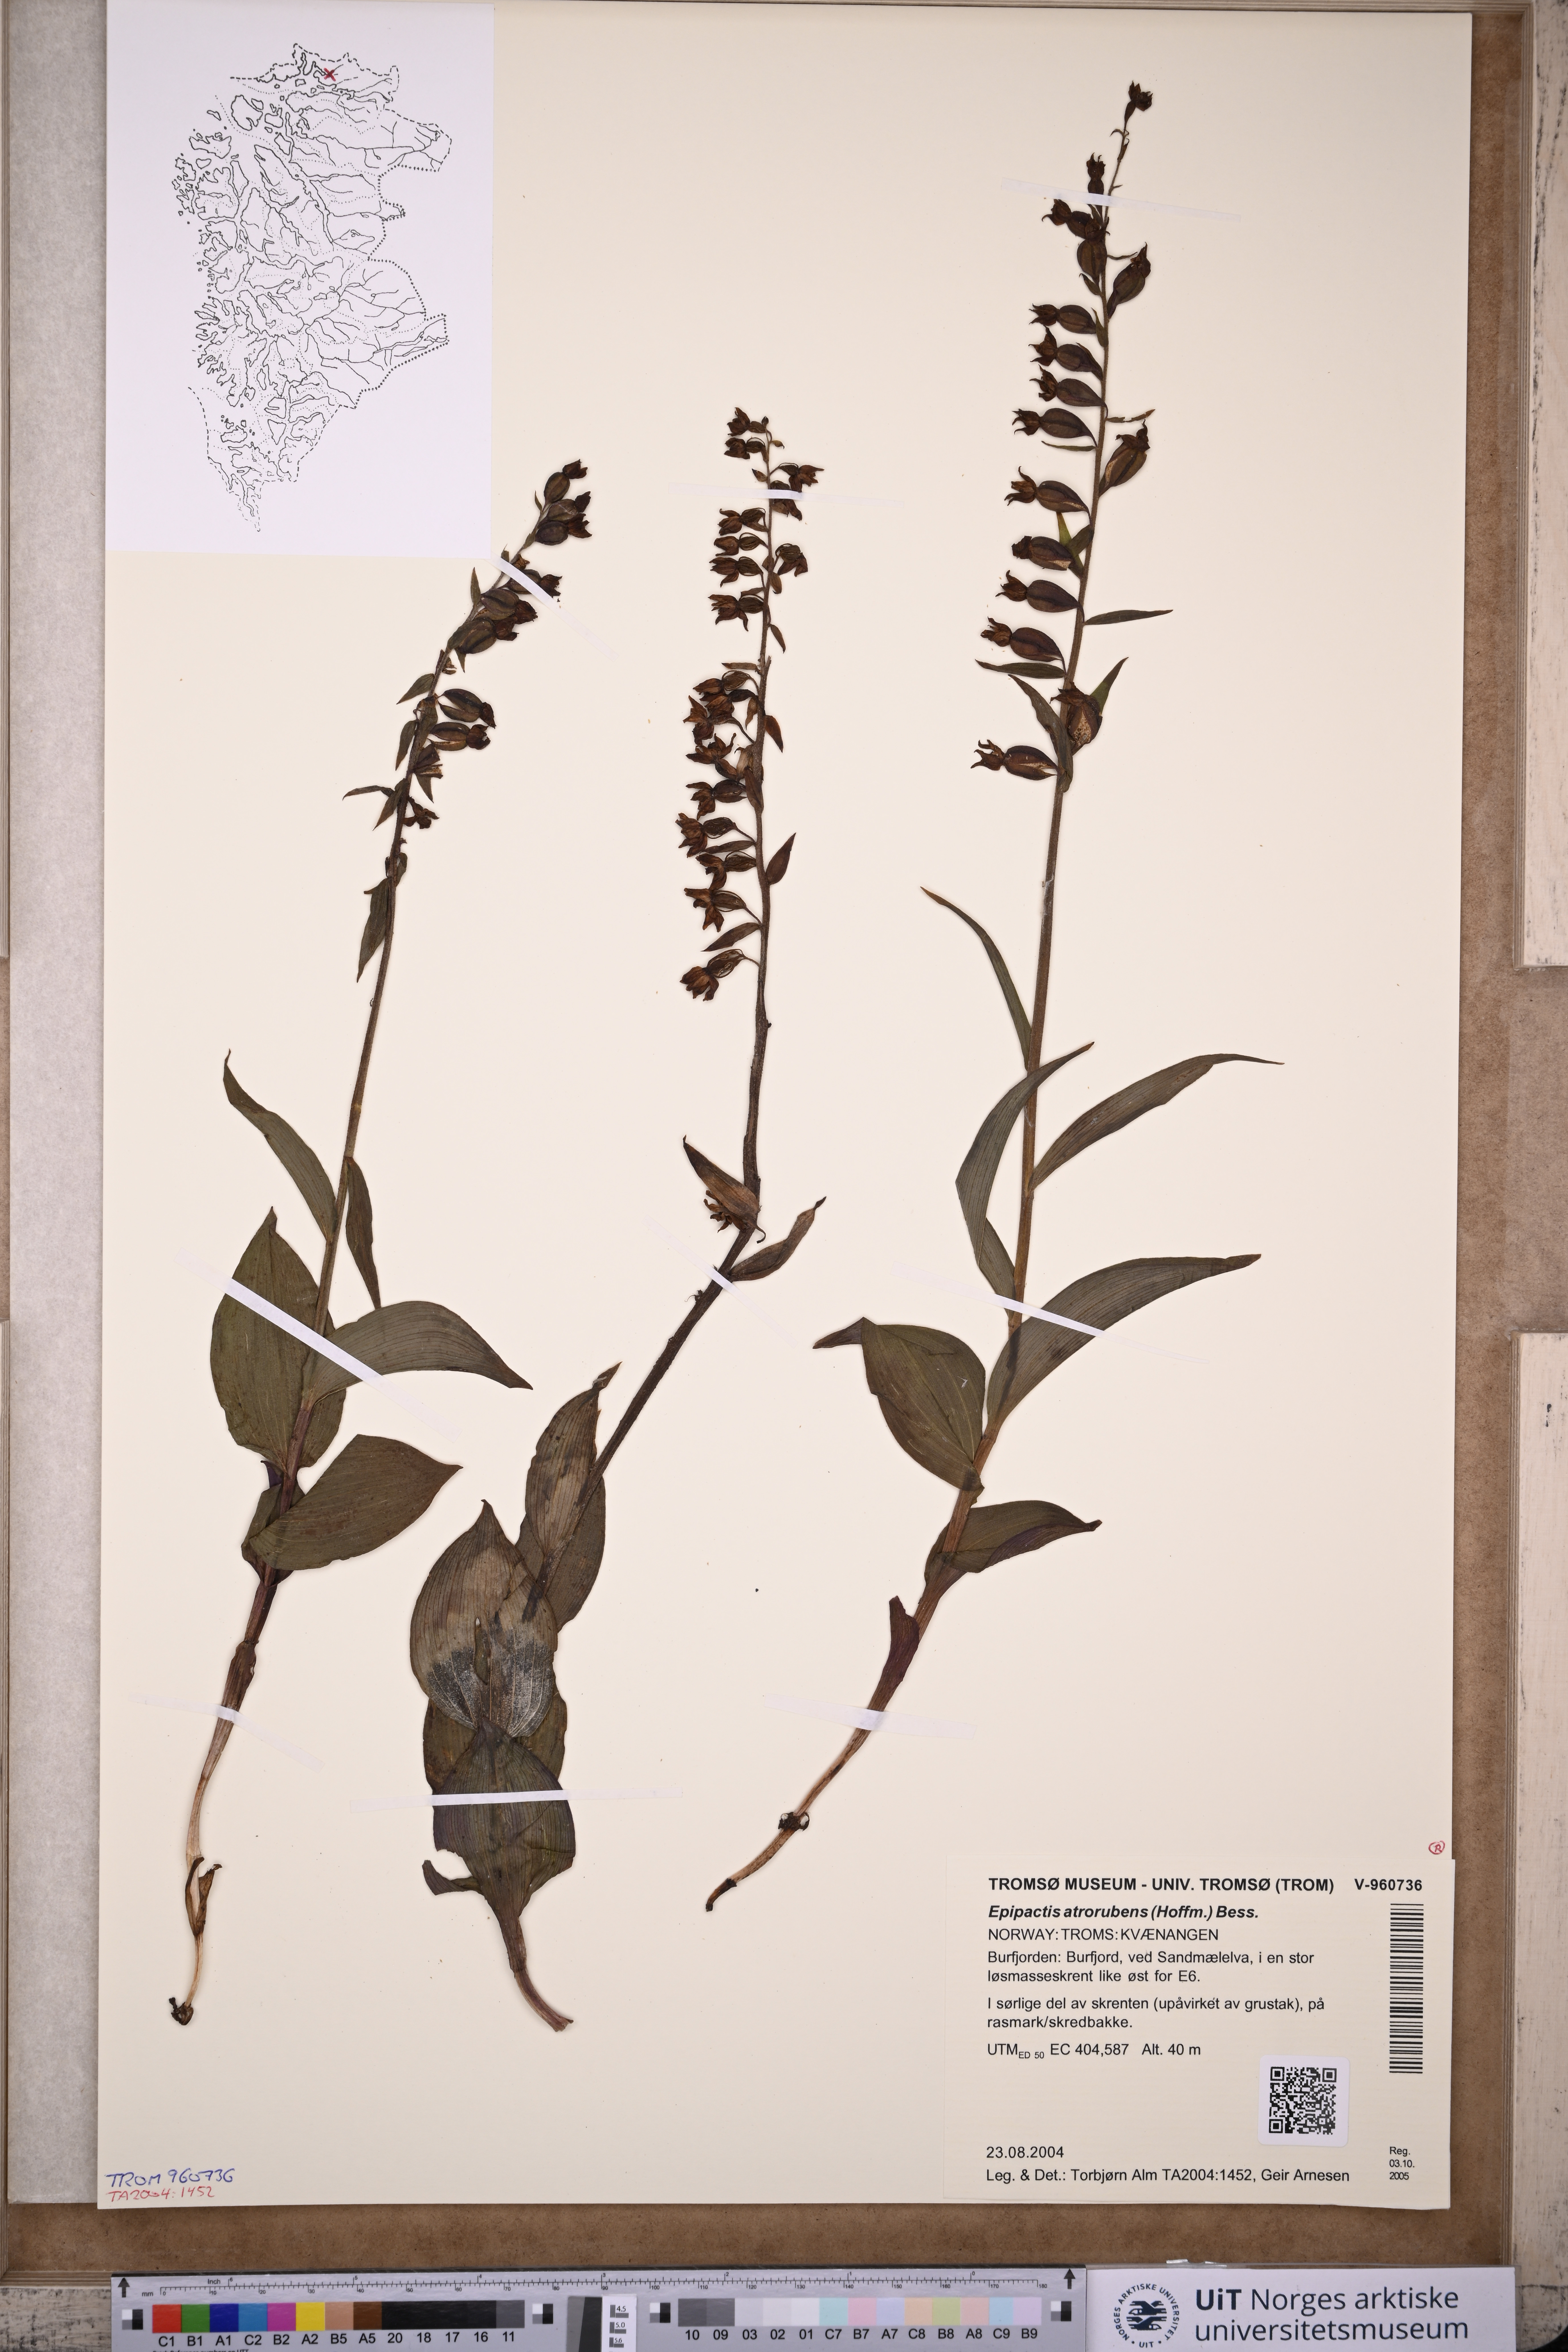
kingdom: Plantae
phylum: Tracheophyta
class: Liliopsida
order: Asparagales
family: Orchidaceae
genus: Epipactis
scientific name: Epipactis atrorubens
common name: Dark-red helleborine
